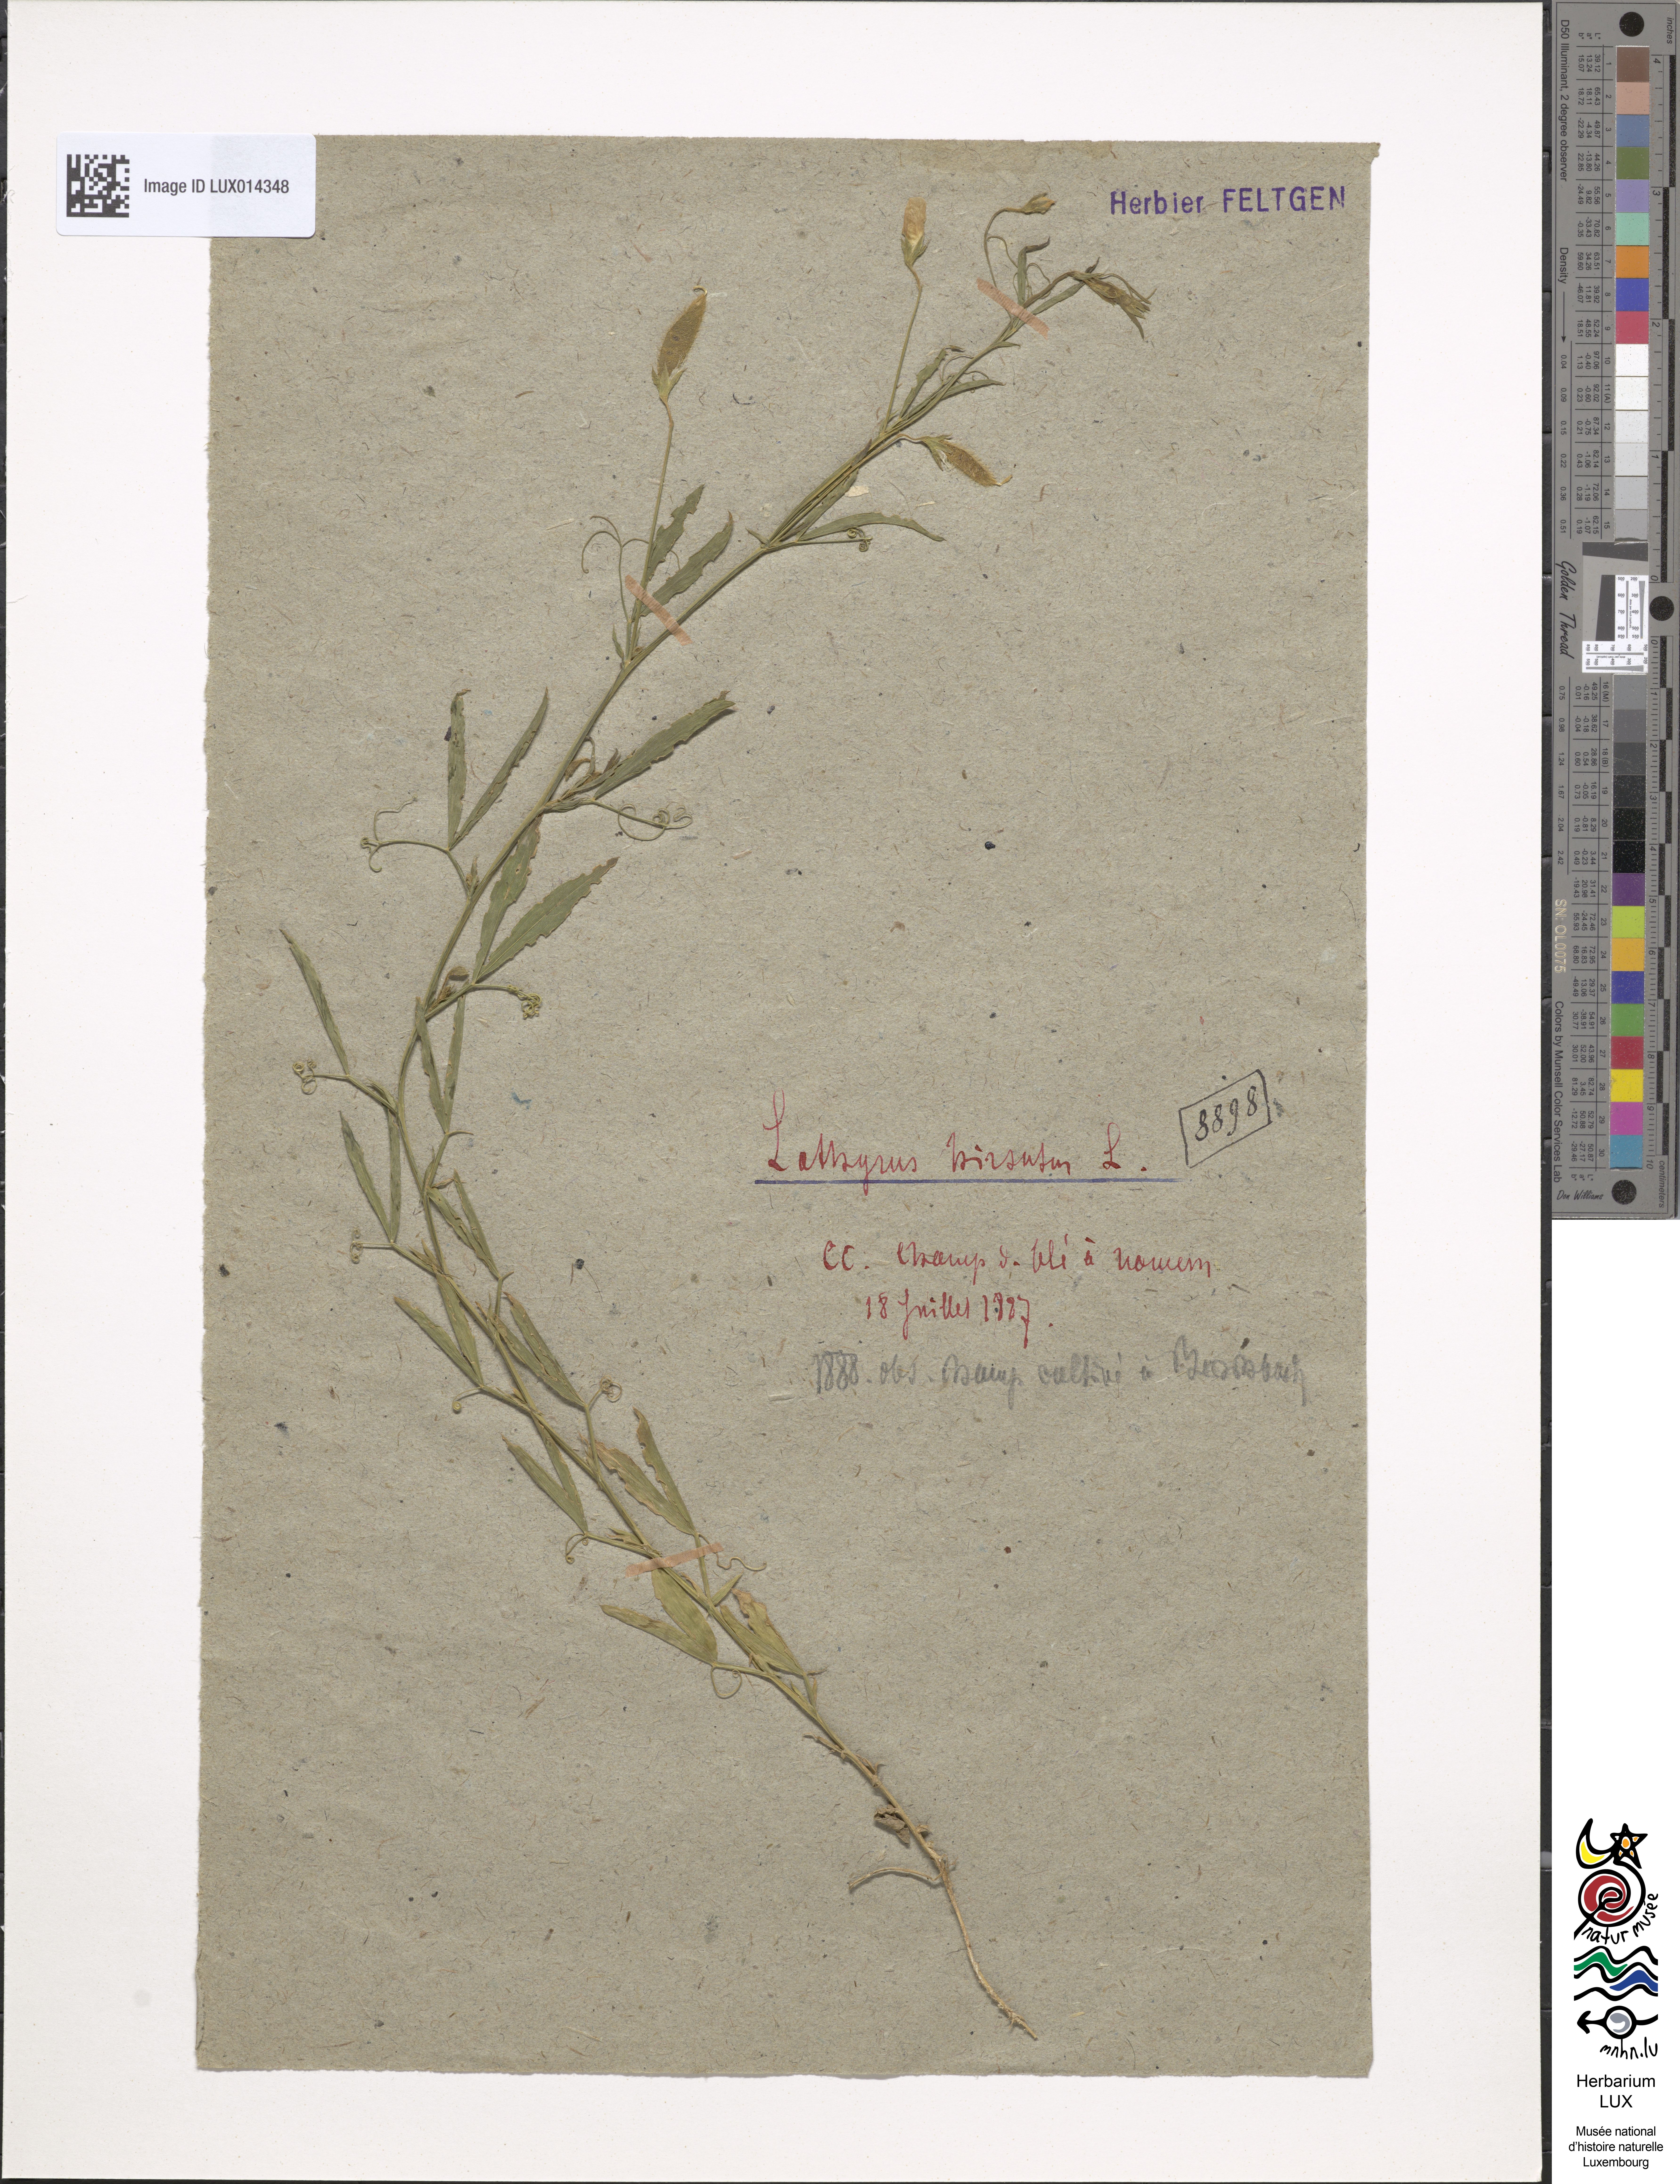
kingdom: Plantae
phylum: Tracheophyta
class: Magnoliopsida
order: Fabales
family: Fabaceae
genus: Lathyrus
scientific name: Lathyrus hirsutus
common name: Hairy vetchling
